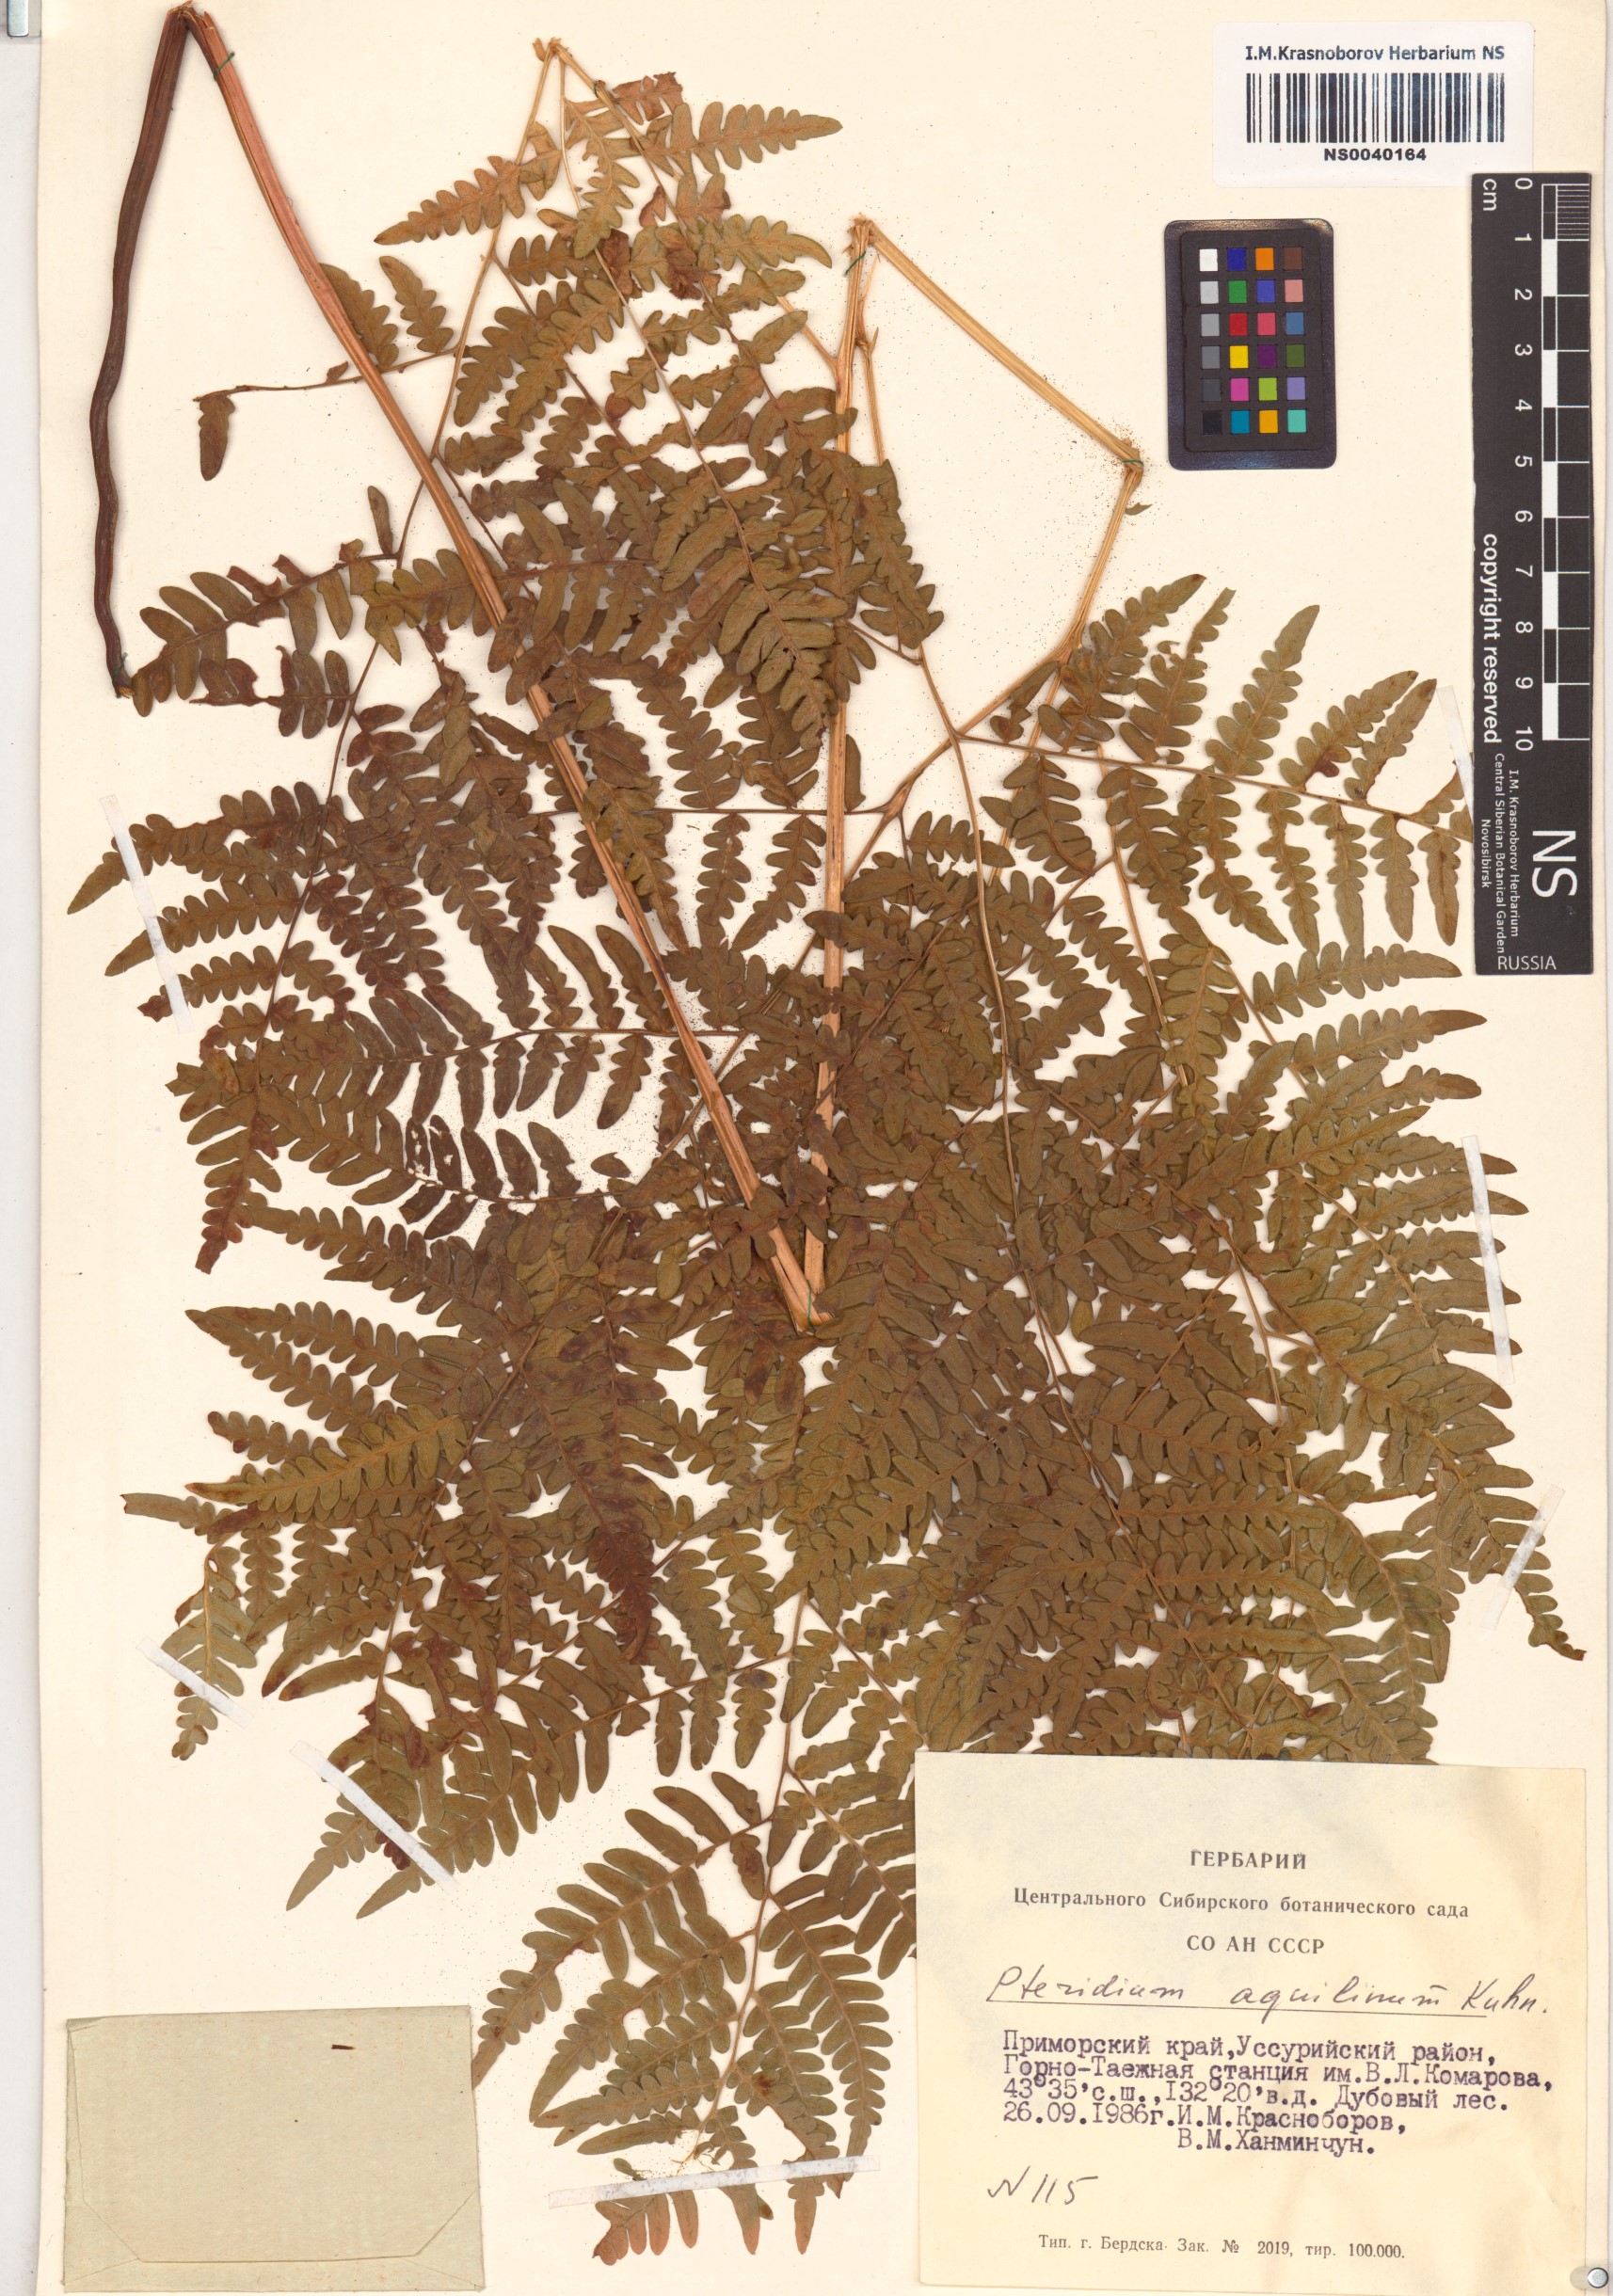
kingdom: Plantae
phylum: Tracheophyta
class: Polypodiopsida
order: Polypodiales
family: Dennstaedtiaceae
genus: Pteridium
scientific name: Pteridium aquilinum
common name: Bracken
